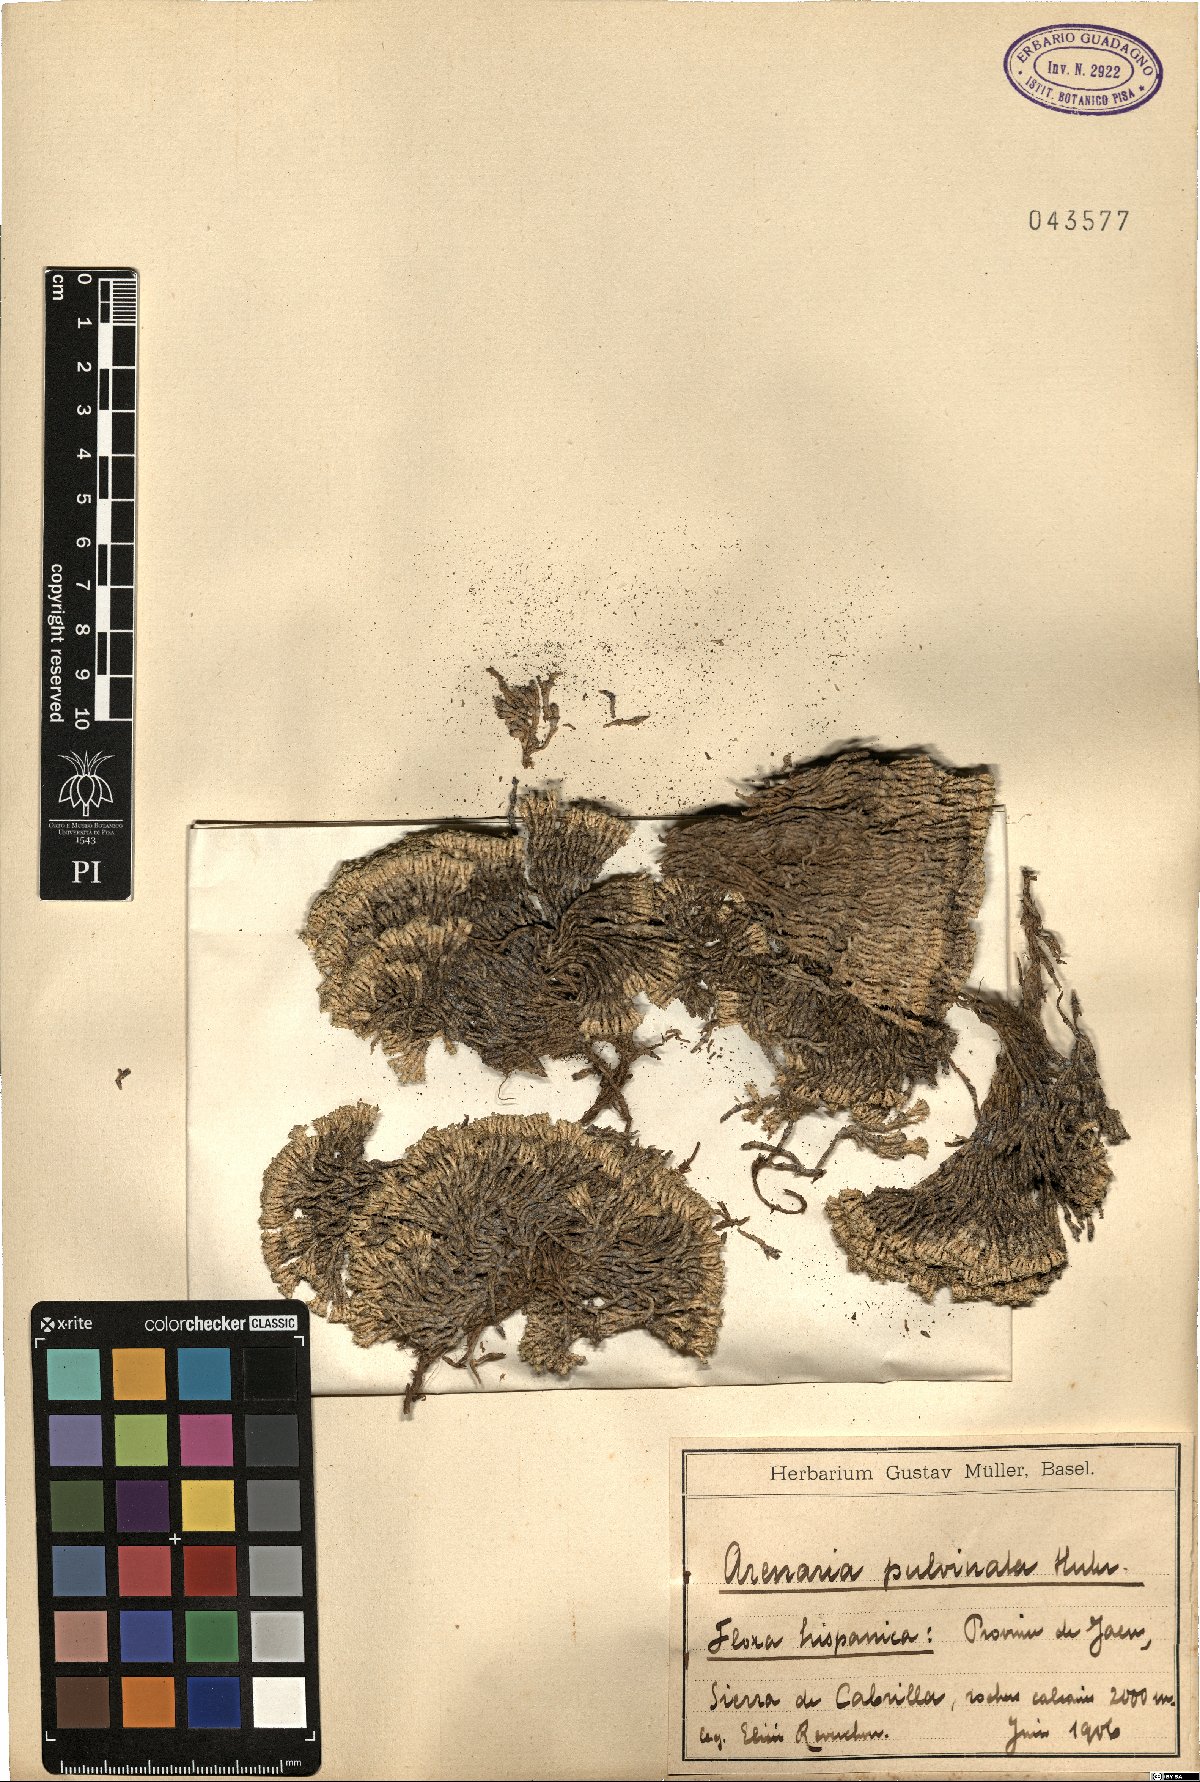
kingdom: Plantae
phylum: Tracheophyta
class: Magnoliopsida
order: Caryophyllales
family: Caryophyllaceae
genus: Arenaria
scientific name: Arenaria alfacariensis
